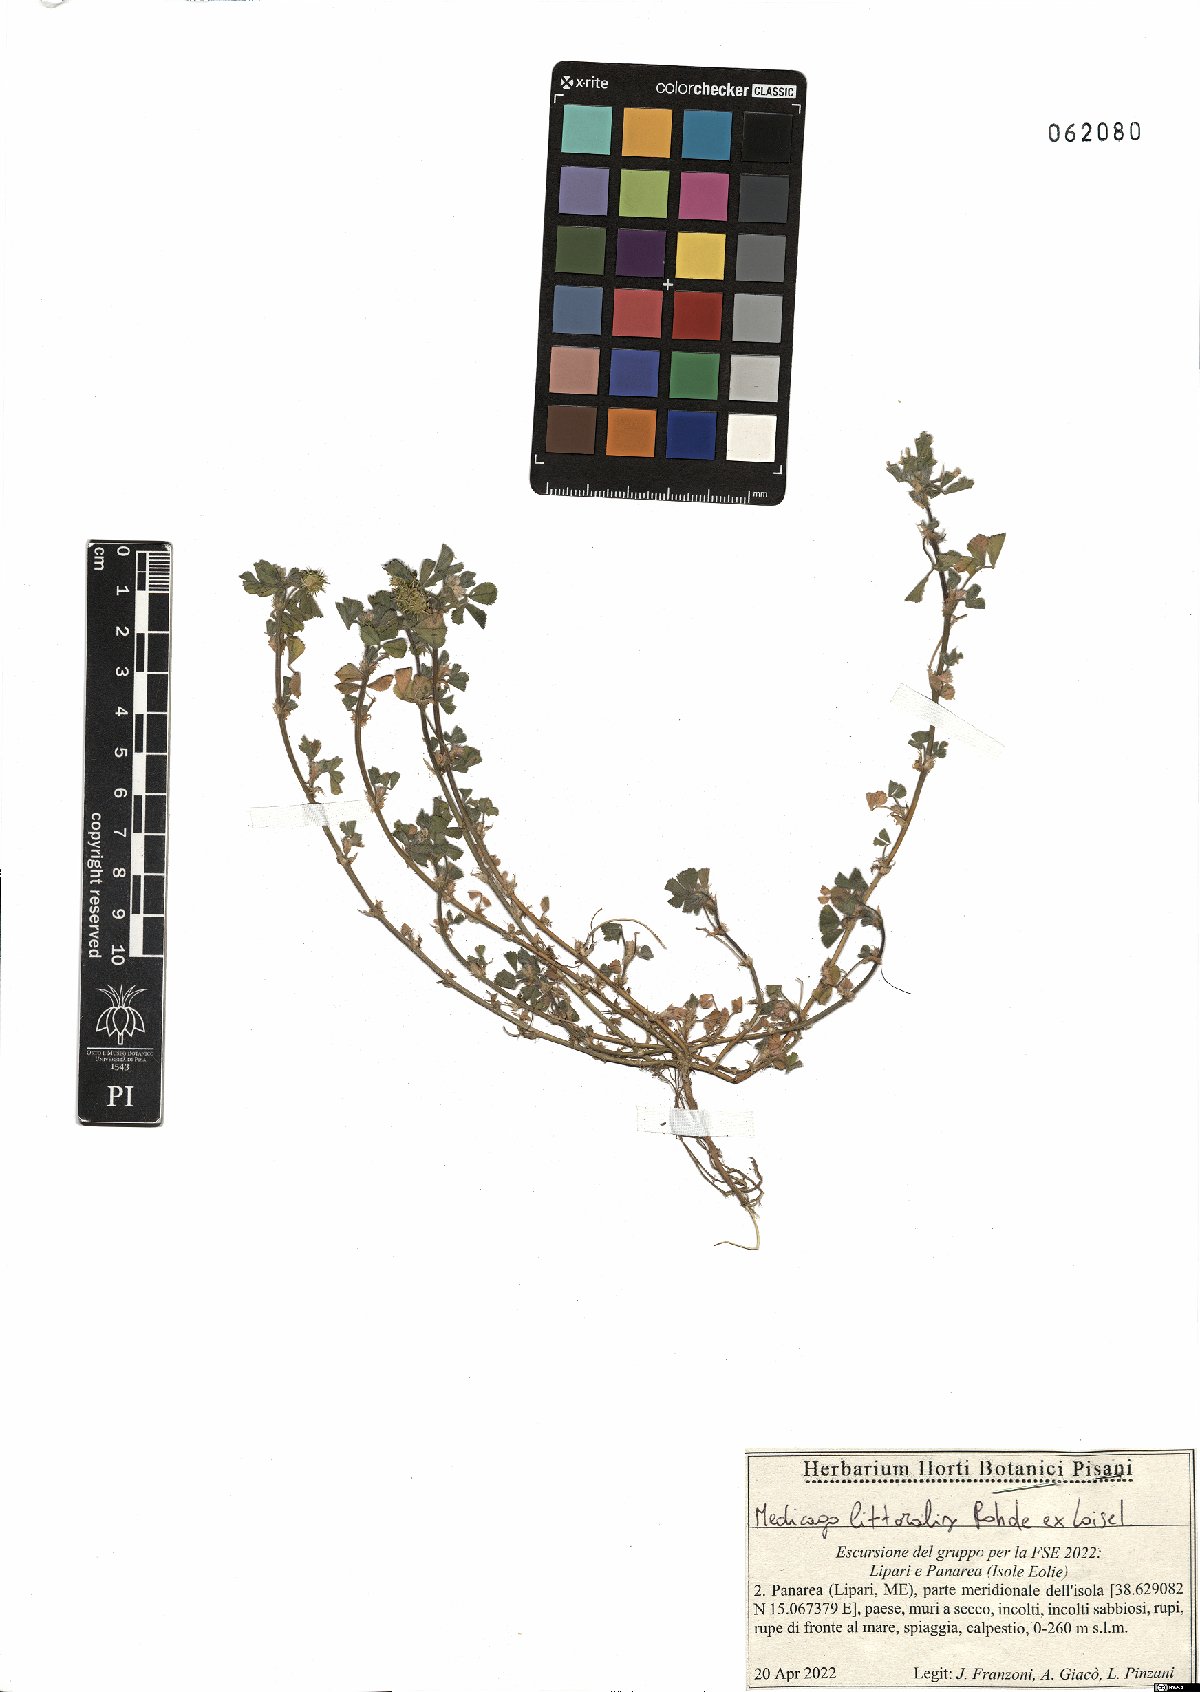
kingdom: Plantae
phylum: Tracheophyta
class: Magnoliopsida
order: Fabales
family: Fabaceae
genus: Medicago
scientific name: Medicago littoralis
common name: Shore medick
